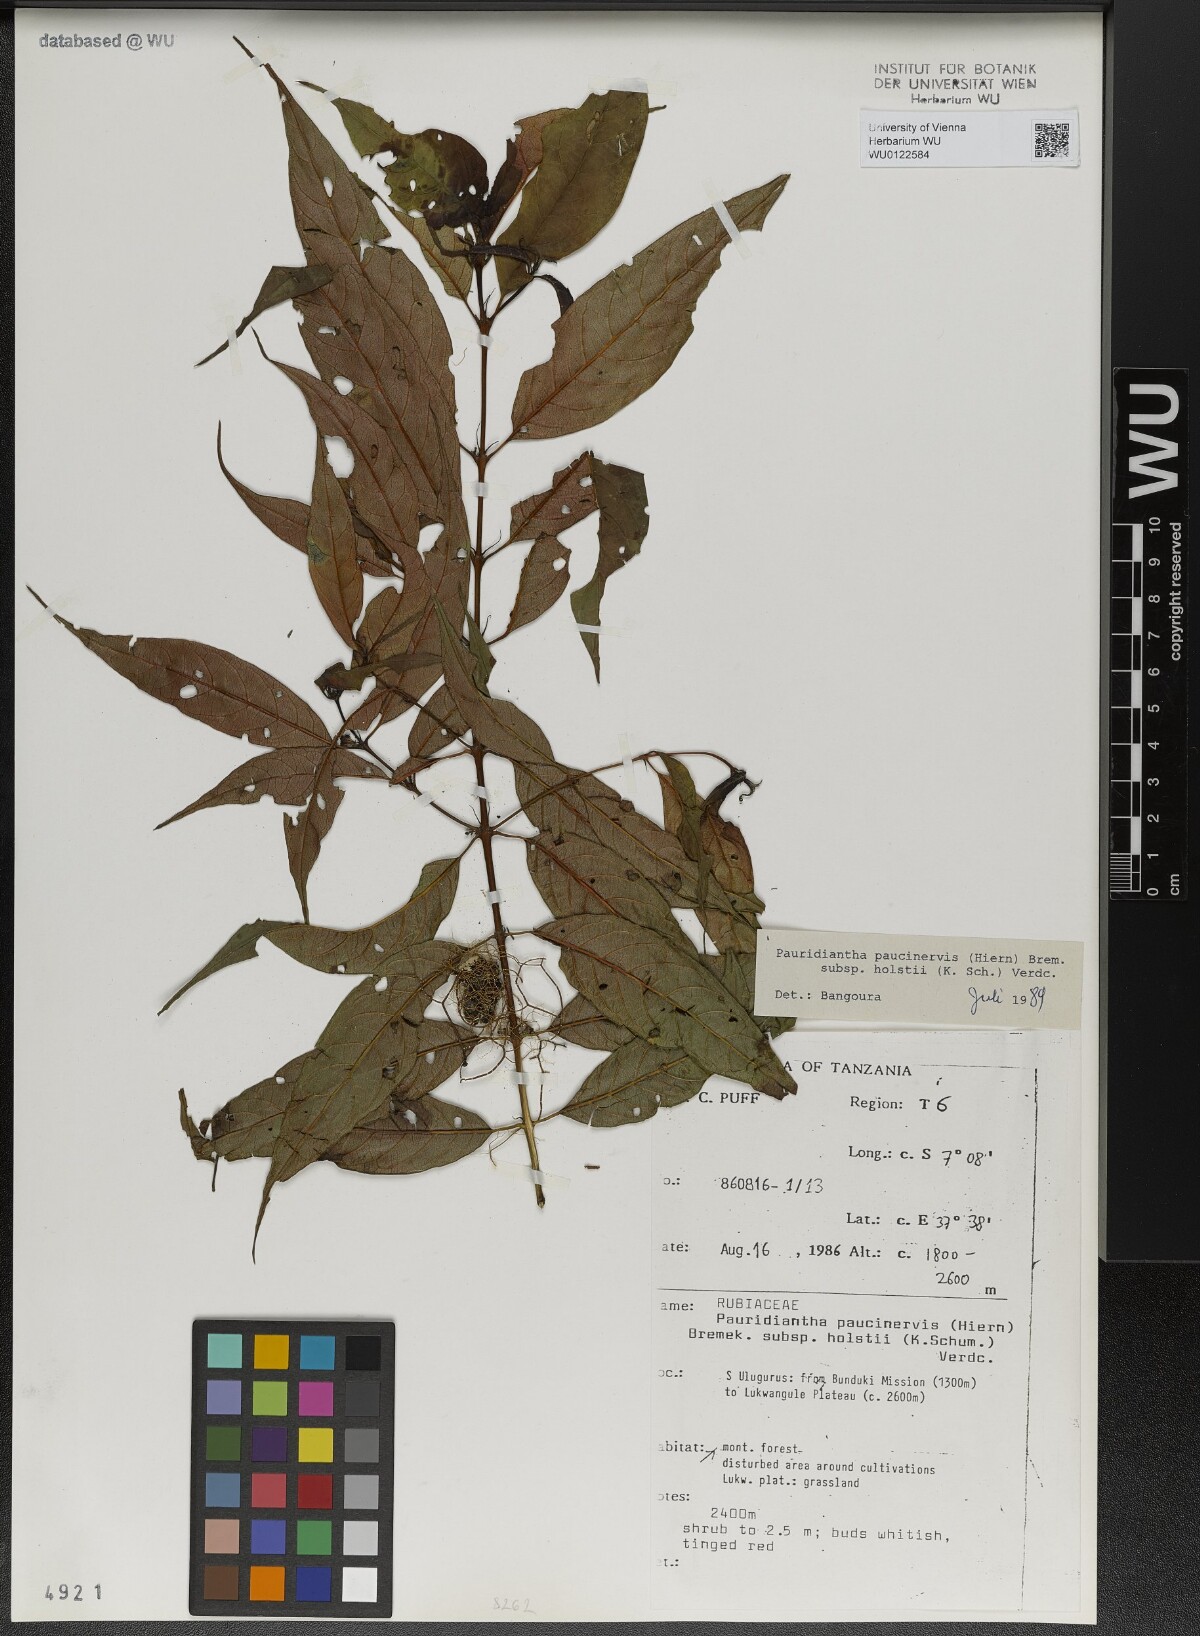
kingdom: Plantae
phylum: Tracheophyta
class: Magnoliopsida
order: Gentianales
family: Rubiaceae
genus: Pauridiantha
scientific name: Pauridiantha paucinervis
